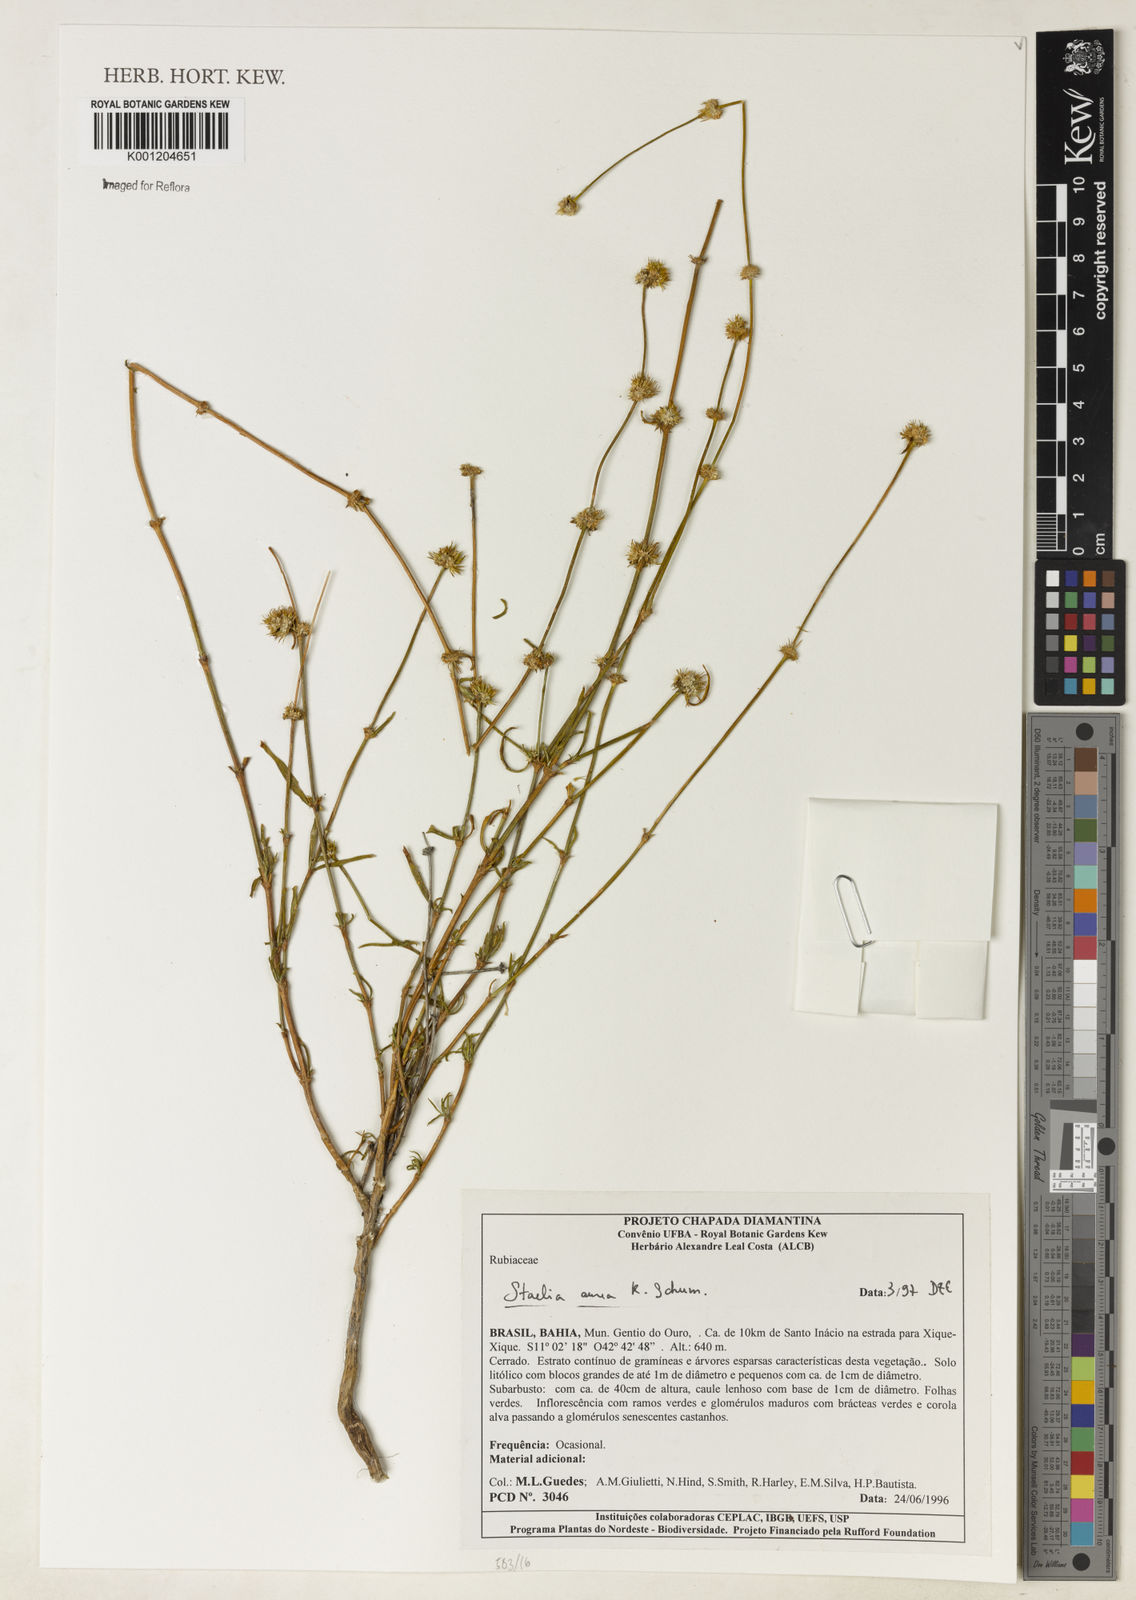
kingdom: Plantae
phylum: Tracheophyta
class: Magnoliopsida
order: Gentianales
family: Rubiaceae
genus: Staelia
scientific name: Staelia aurea
